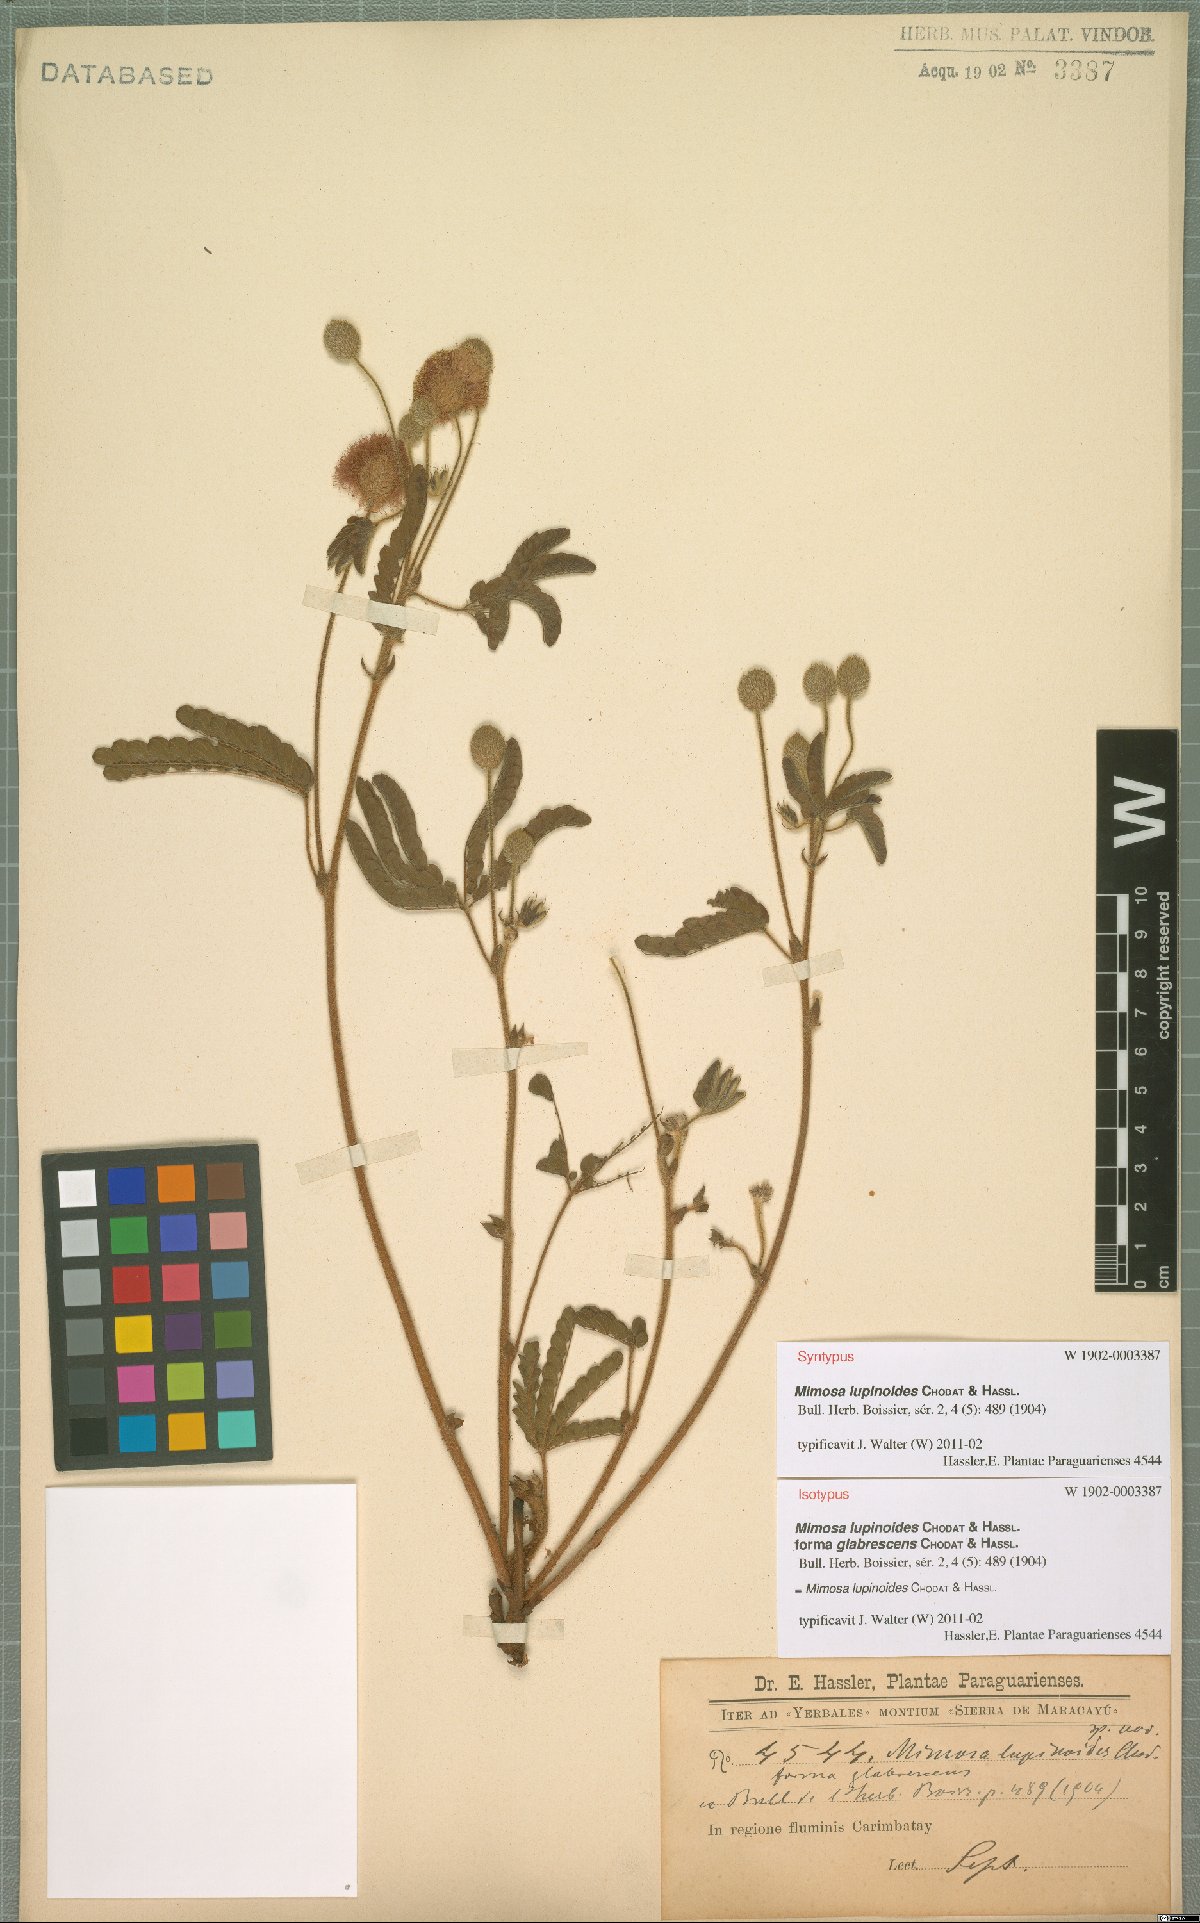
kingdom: Plantae
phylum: Tracheophyta
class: Magnoliopsida
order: Fabales
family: Fabaceae
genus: Mimosa
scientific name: Mimosa lupinoides
